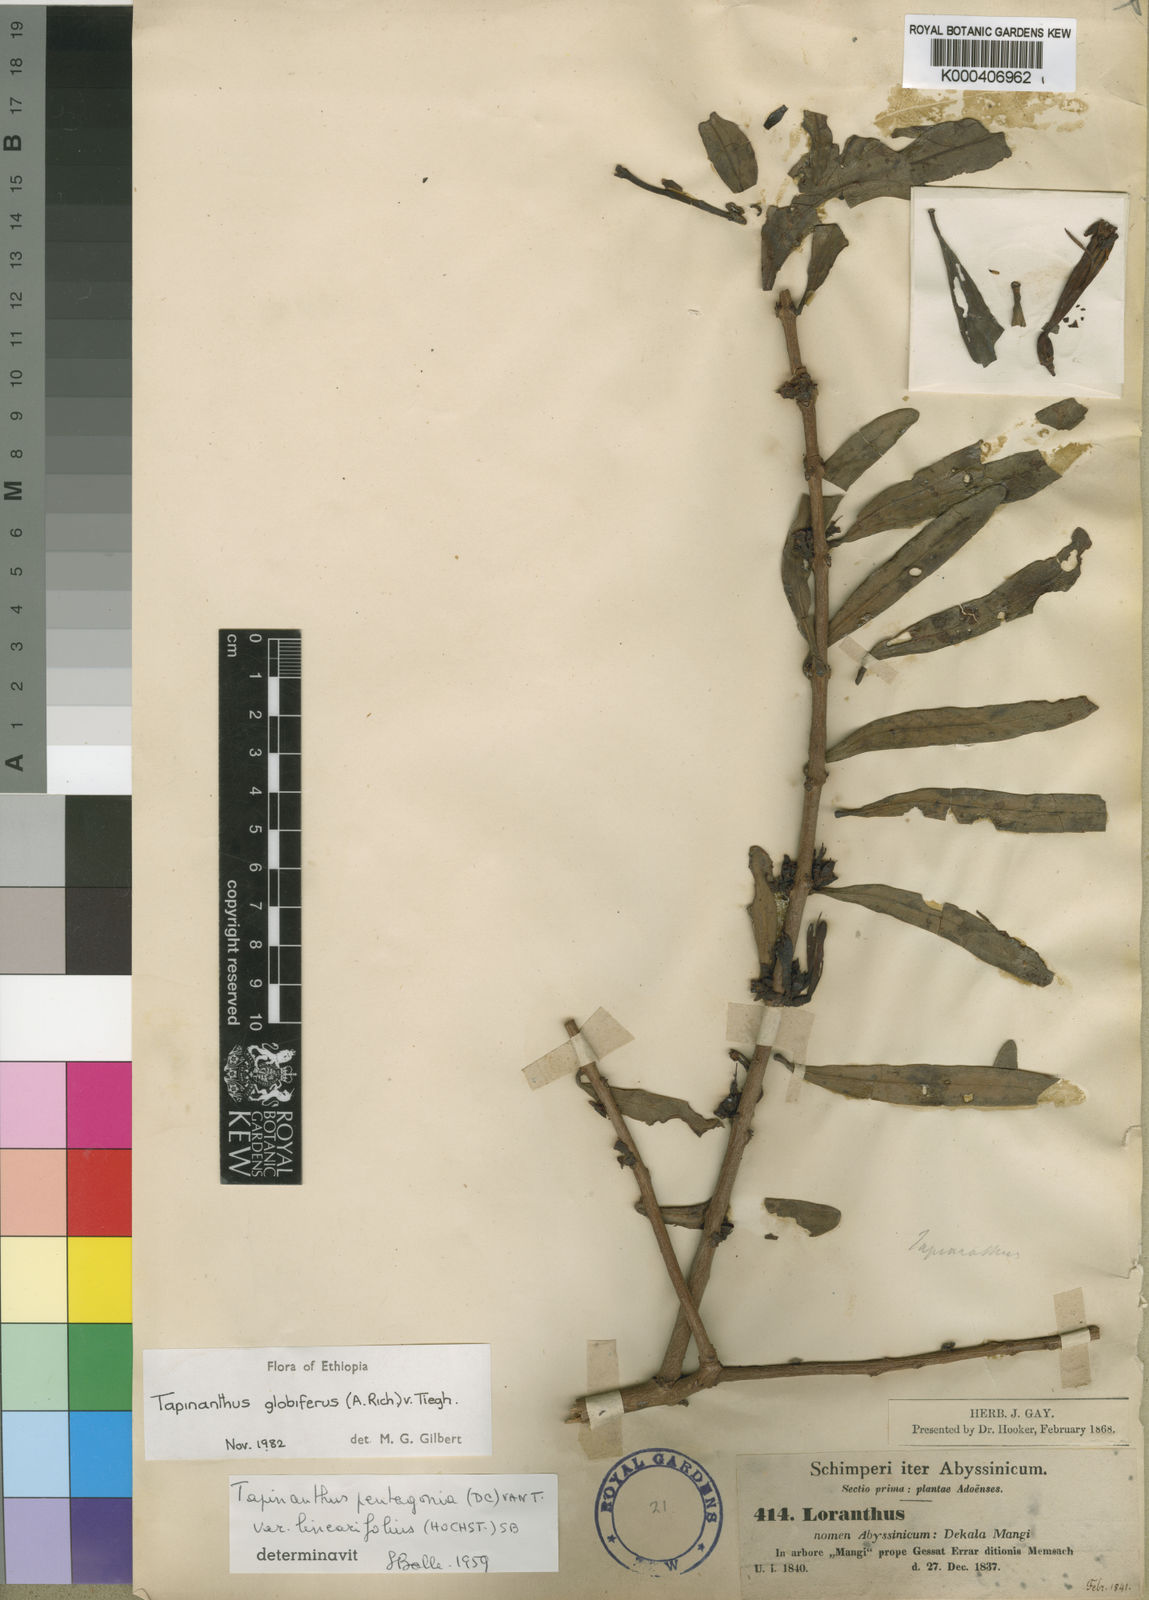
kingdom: Plantae
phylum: Tracheophyta
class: Magnoliopsida
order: Santalales
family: Loranthaceae
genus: Tapinanthus
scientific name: Tapinanthus
